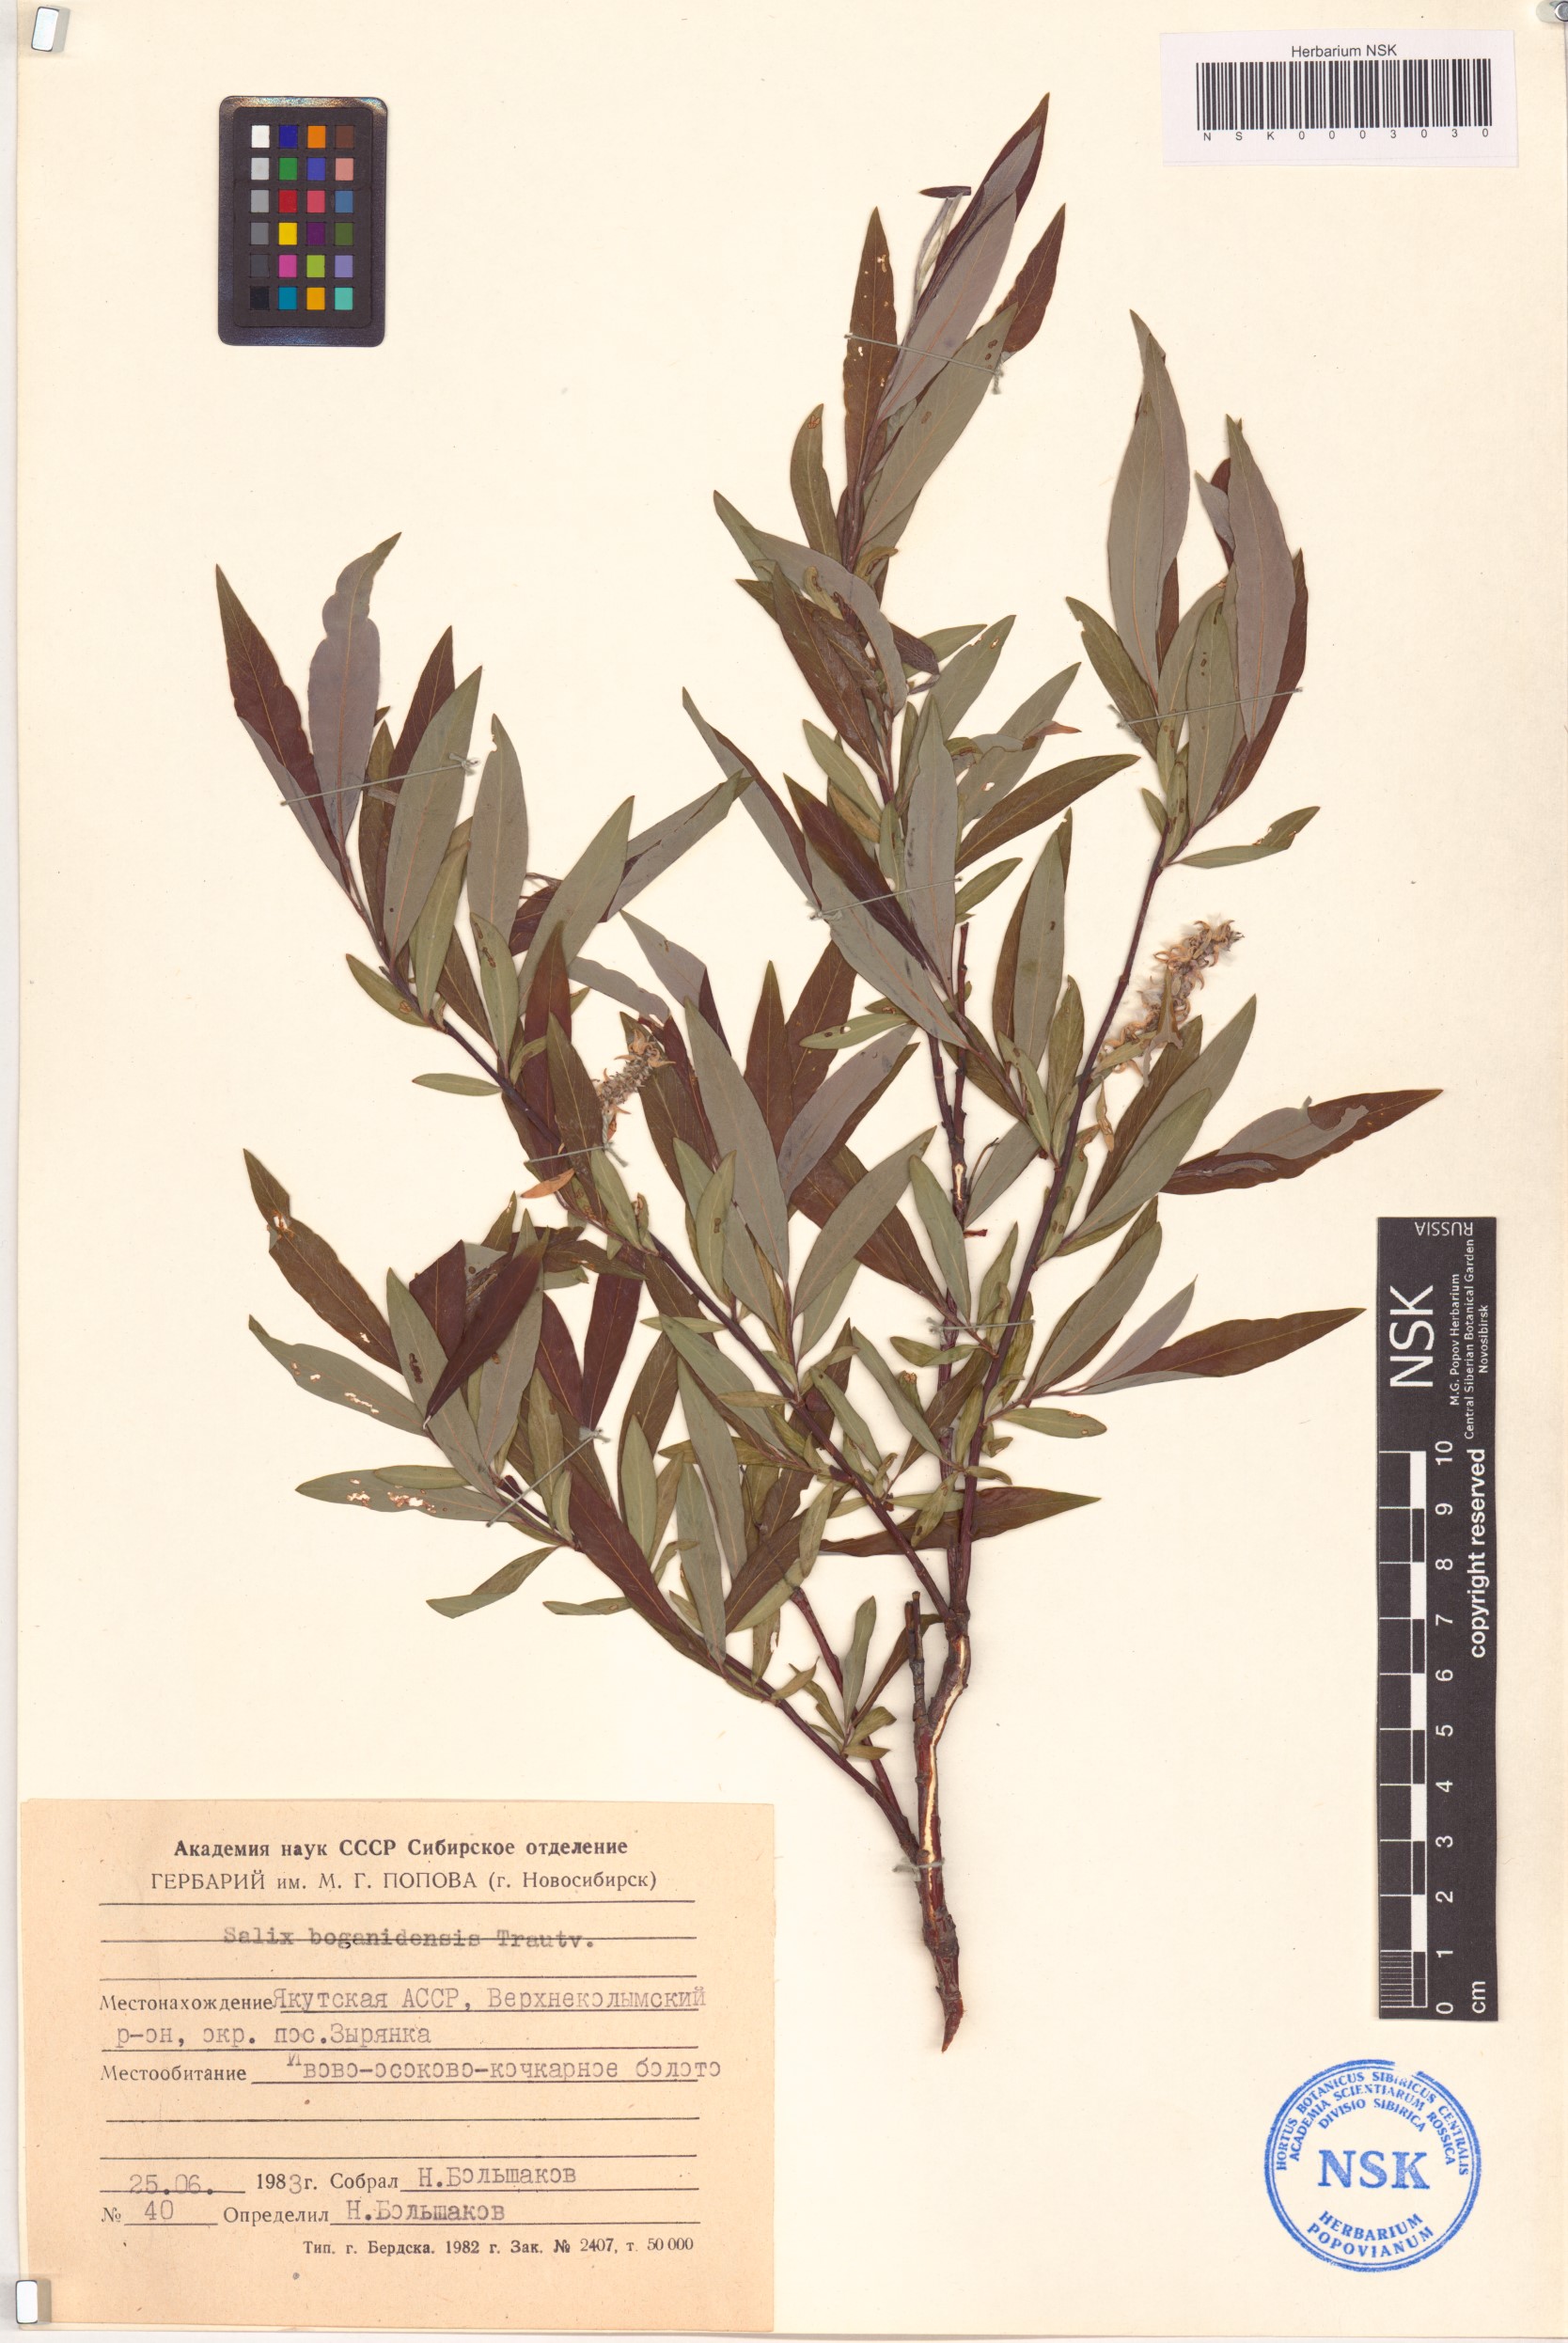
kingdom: Plantae
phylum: Tracheophyta
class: Magnoliopsida
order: Malpighiales
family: Salicaceae
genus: Salix
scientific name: Salix boganidensis
